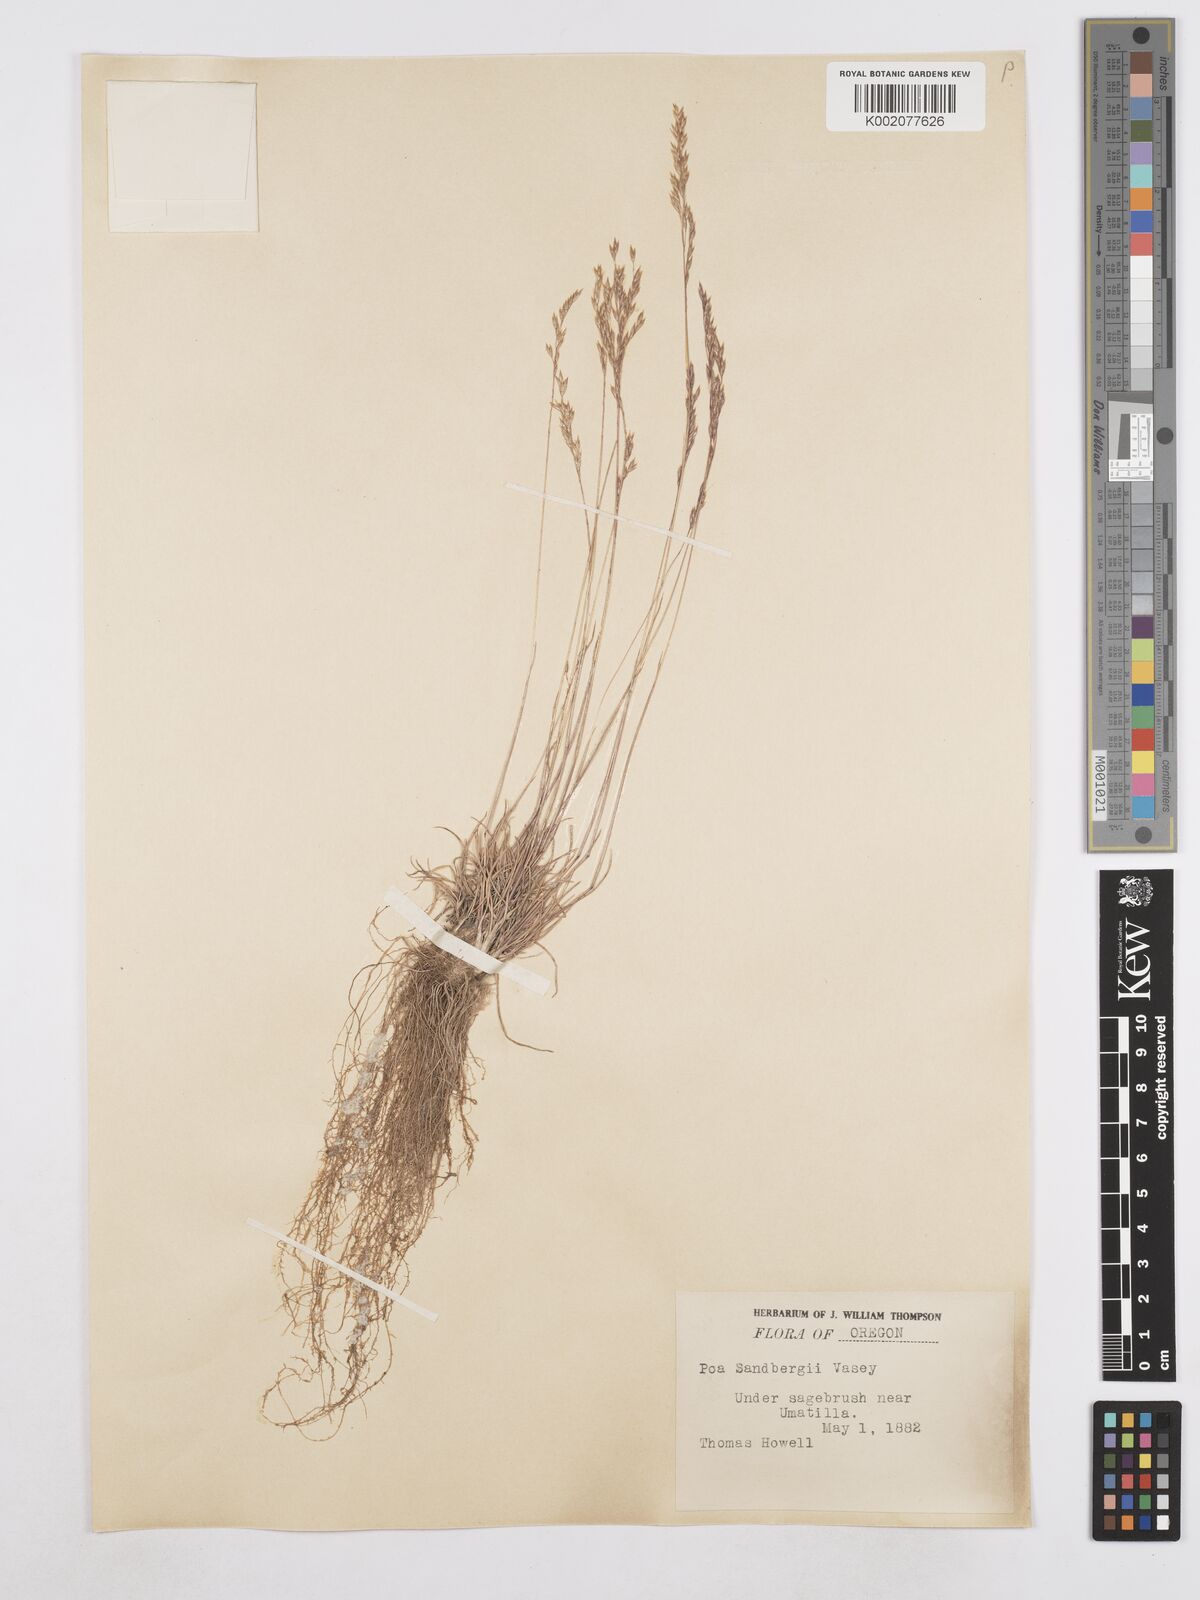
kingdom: Plantae
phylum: Tracheophyta
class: Liliopsida
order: Poales
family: Poaceae
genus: Poa
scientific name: Poa secunda
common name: Sandberg bluegrass
